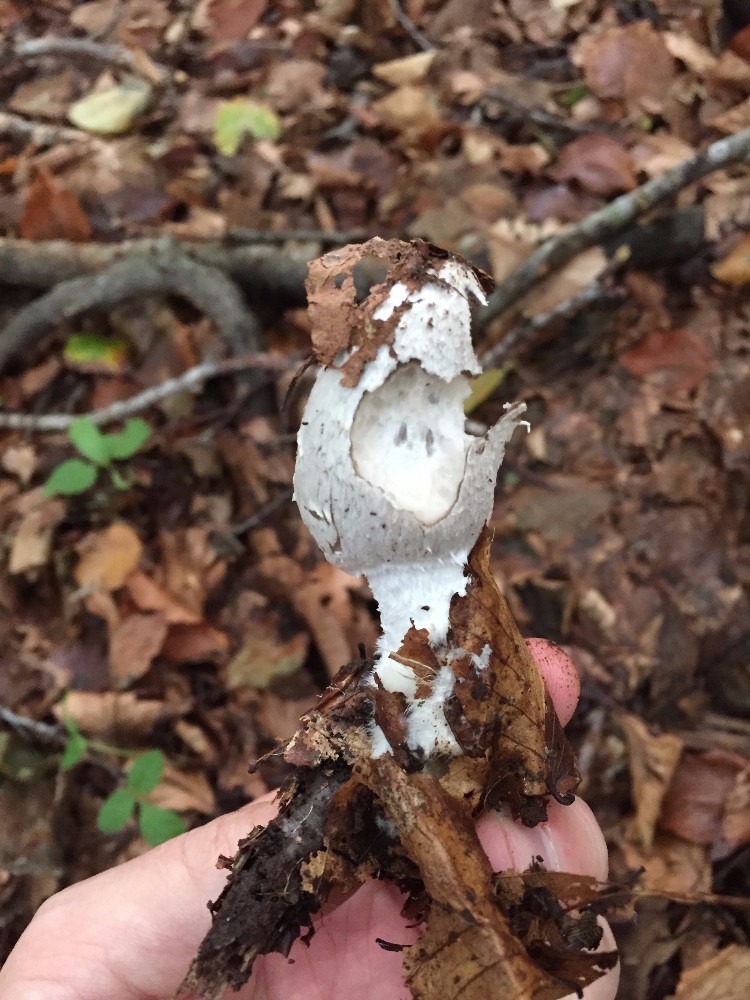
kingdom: Fungi
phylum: Basidiomycota
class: Agaricomycetes
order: Agaricales
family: Psathyrellaceae
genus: Coprinopsis
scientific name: Coprinopsis picacea
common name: skade-blækhat
